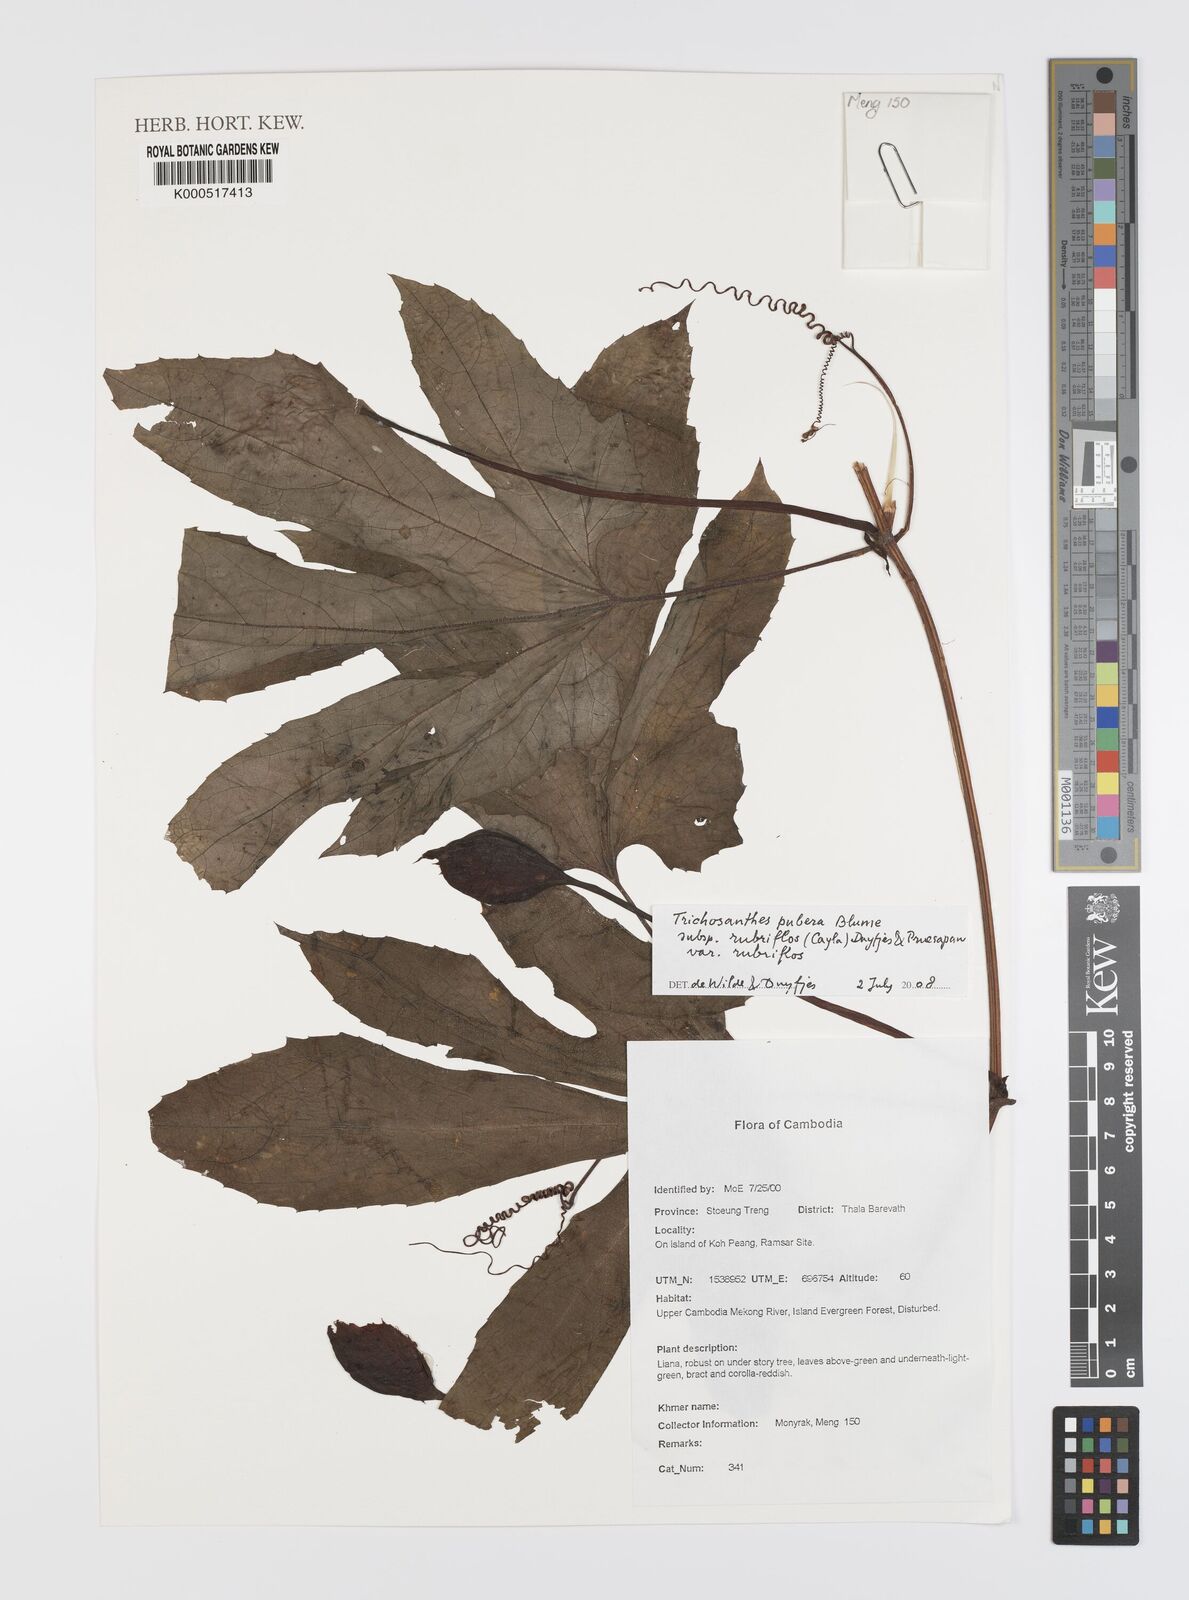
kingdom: Plantae
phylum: Tracheophyta
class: Magnoliopsida
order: Cucurbitales
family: Cucurbitaceae
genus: Trichosanthes
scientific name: Trichosanthes rubriflos
